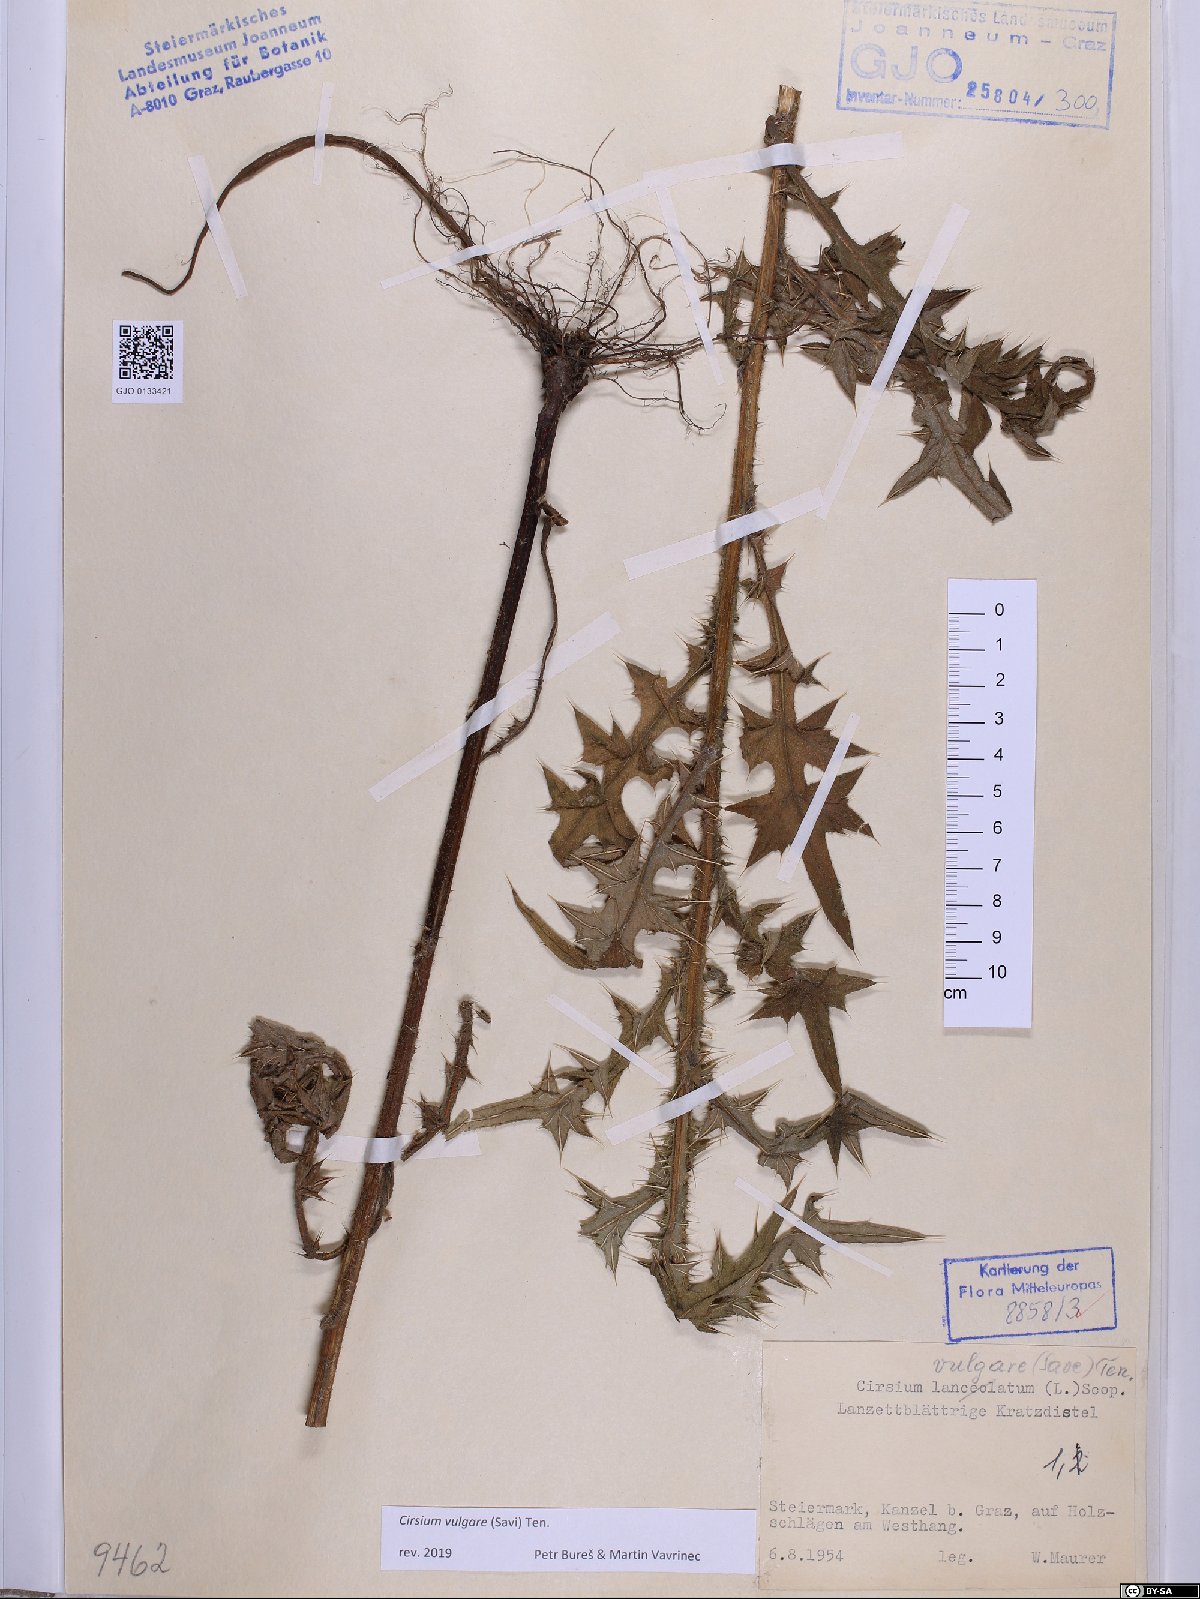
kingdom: Plantae
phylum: Tracheophyta
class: Magnoliopsida
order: Asterales
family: Asteraceae
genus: Cirsium
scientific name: Cirsium vulgare
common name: Bull thistle
